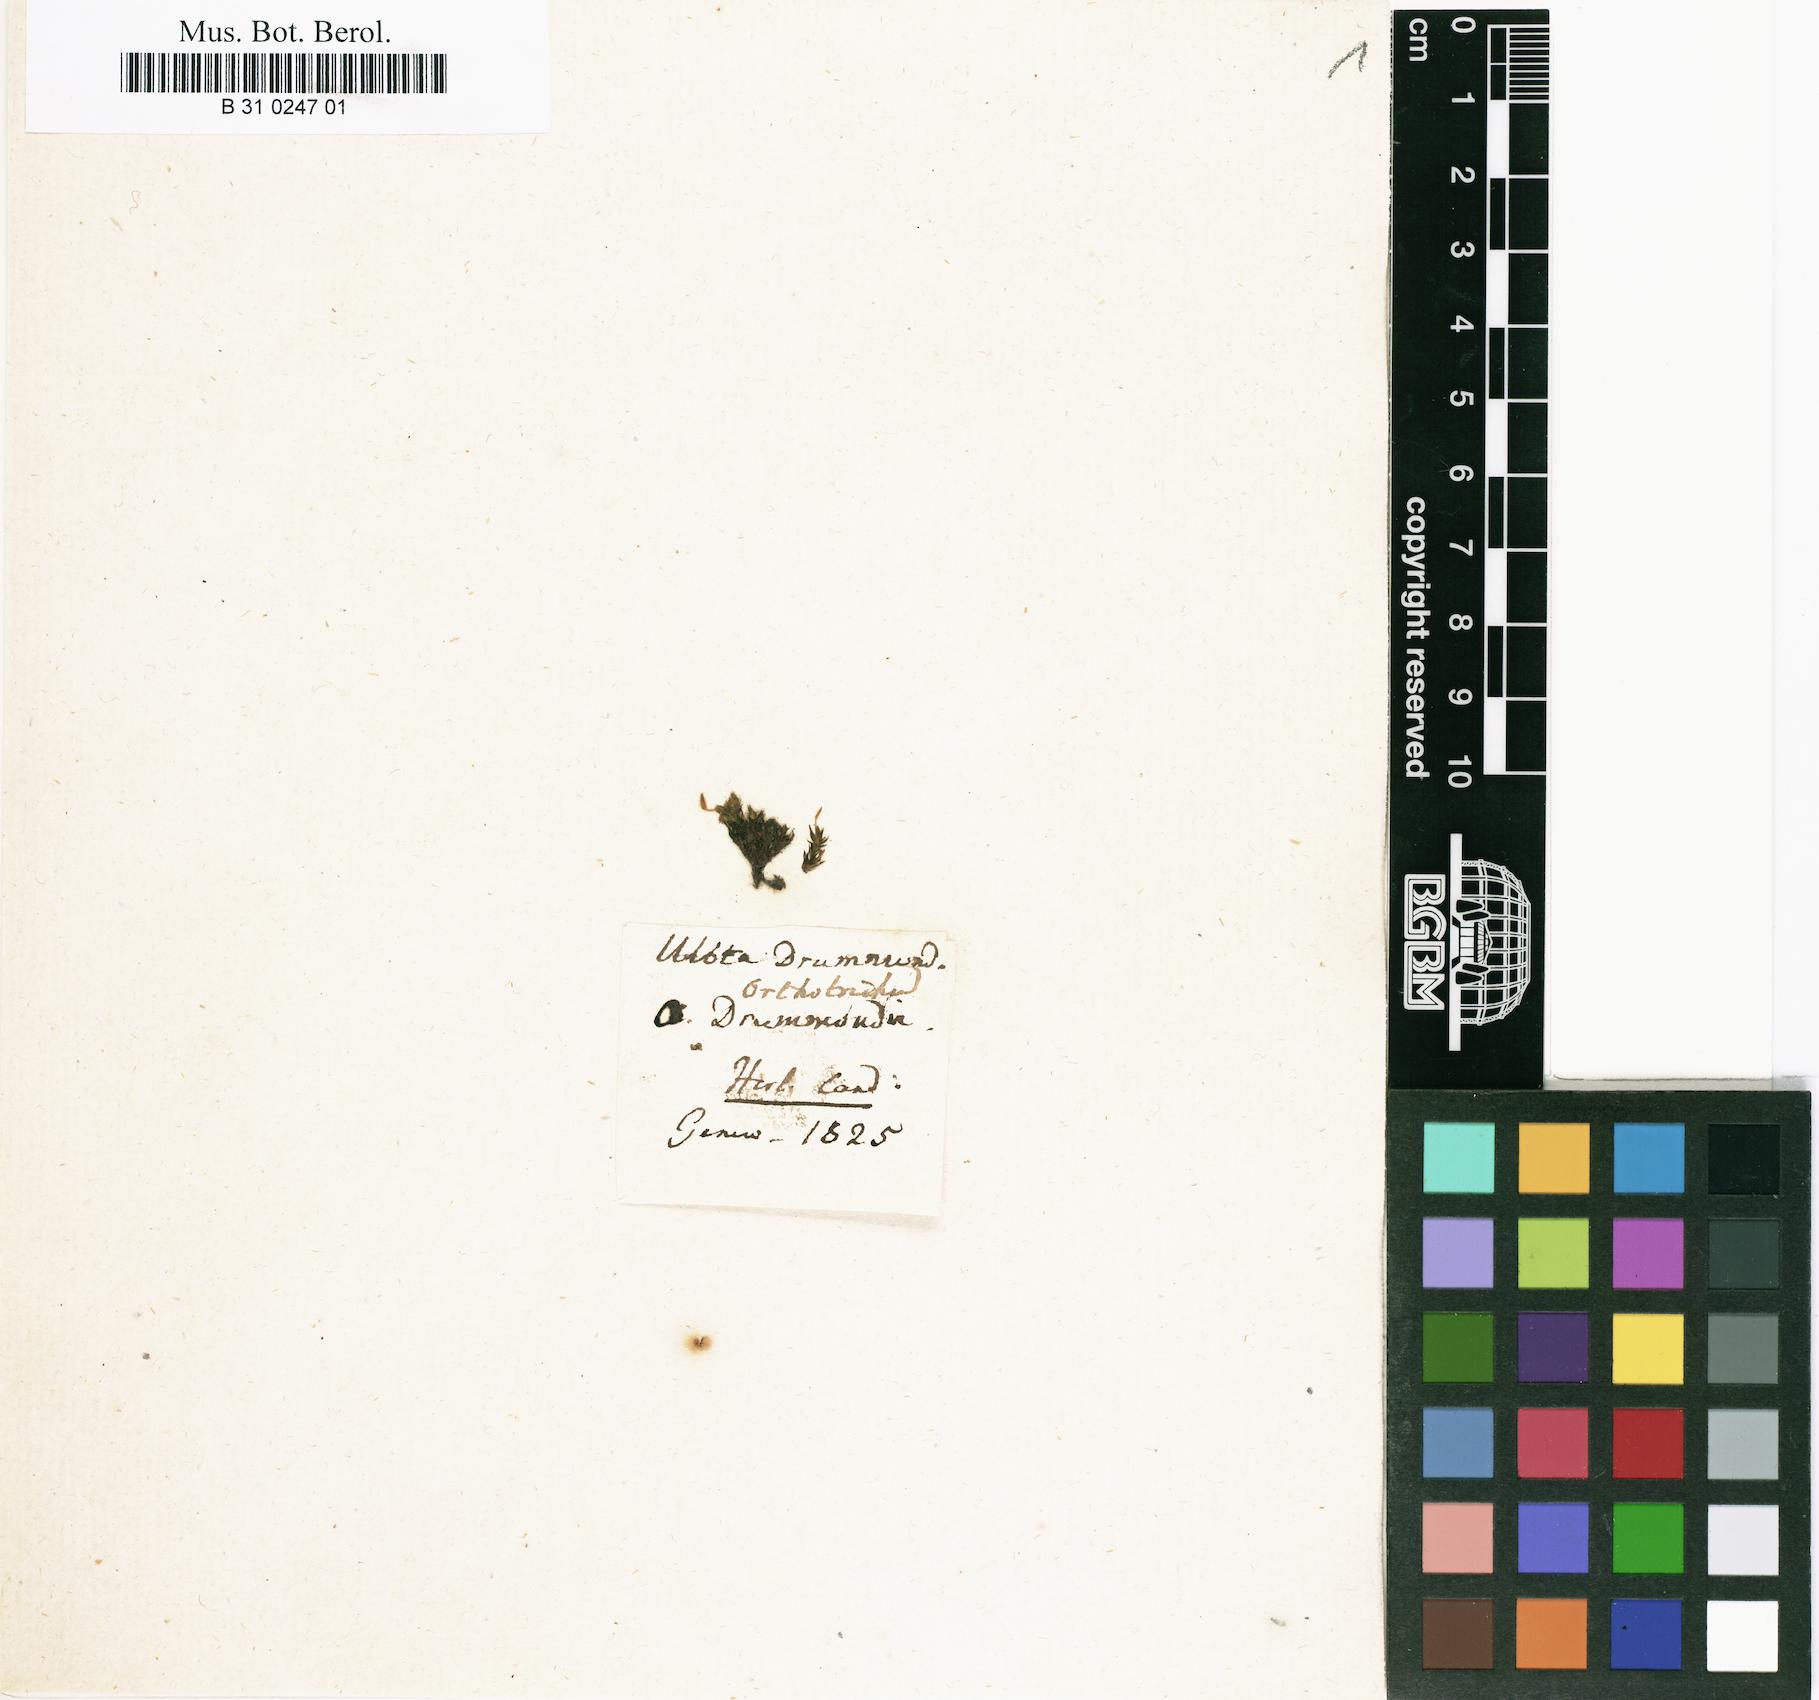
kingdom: Plantae
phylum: Bryophyta
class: Bryopsida
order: Orthotrichales
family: Orthotrichaceae
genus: Ulota
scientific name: Ulota drummondii
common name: Drummond's pincushion moss
